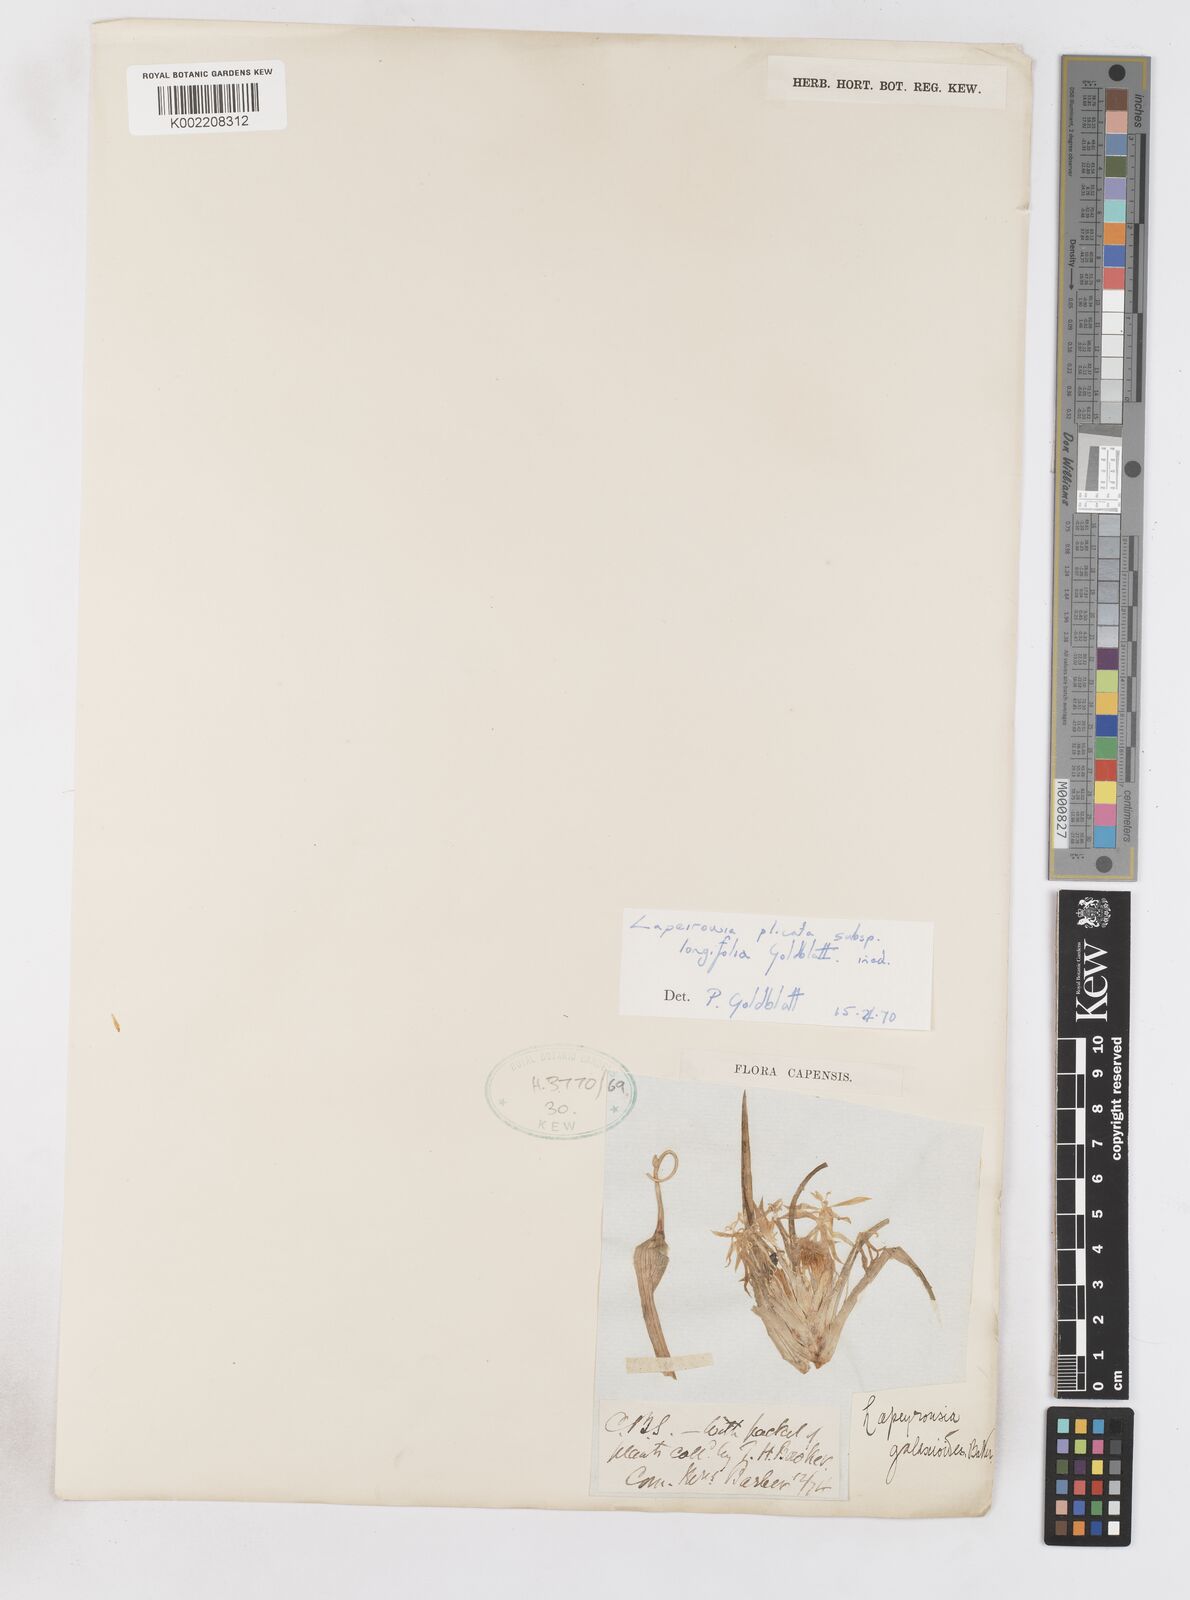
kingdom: Plantae
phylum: Tracheophyta
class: Liliopsida
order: Asparagales
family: Iridaceae
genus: Lapeirousia
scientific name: Lapeirousia kalahariensis
